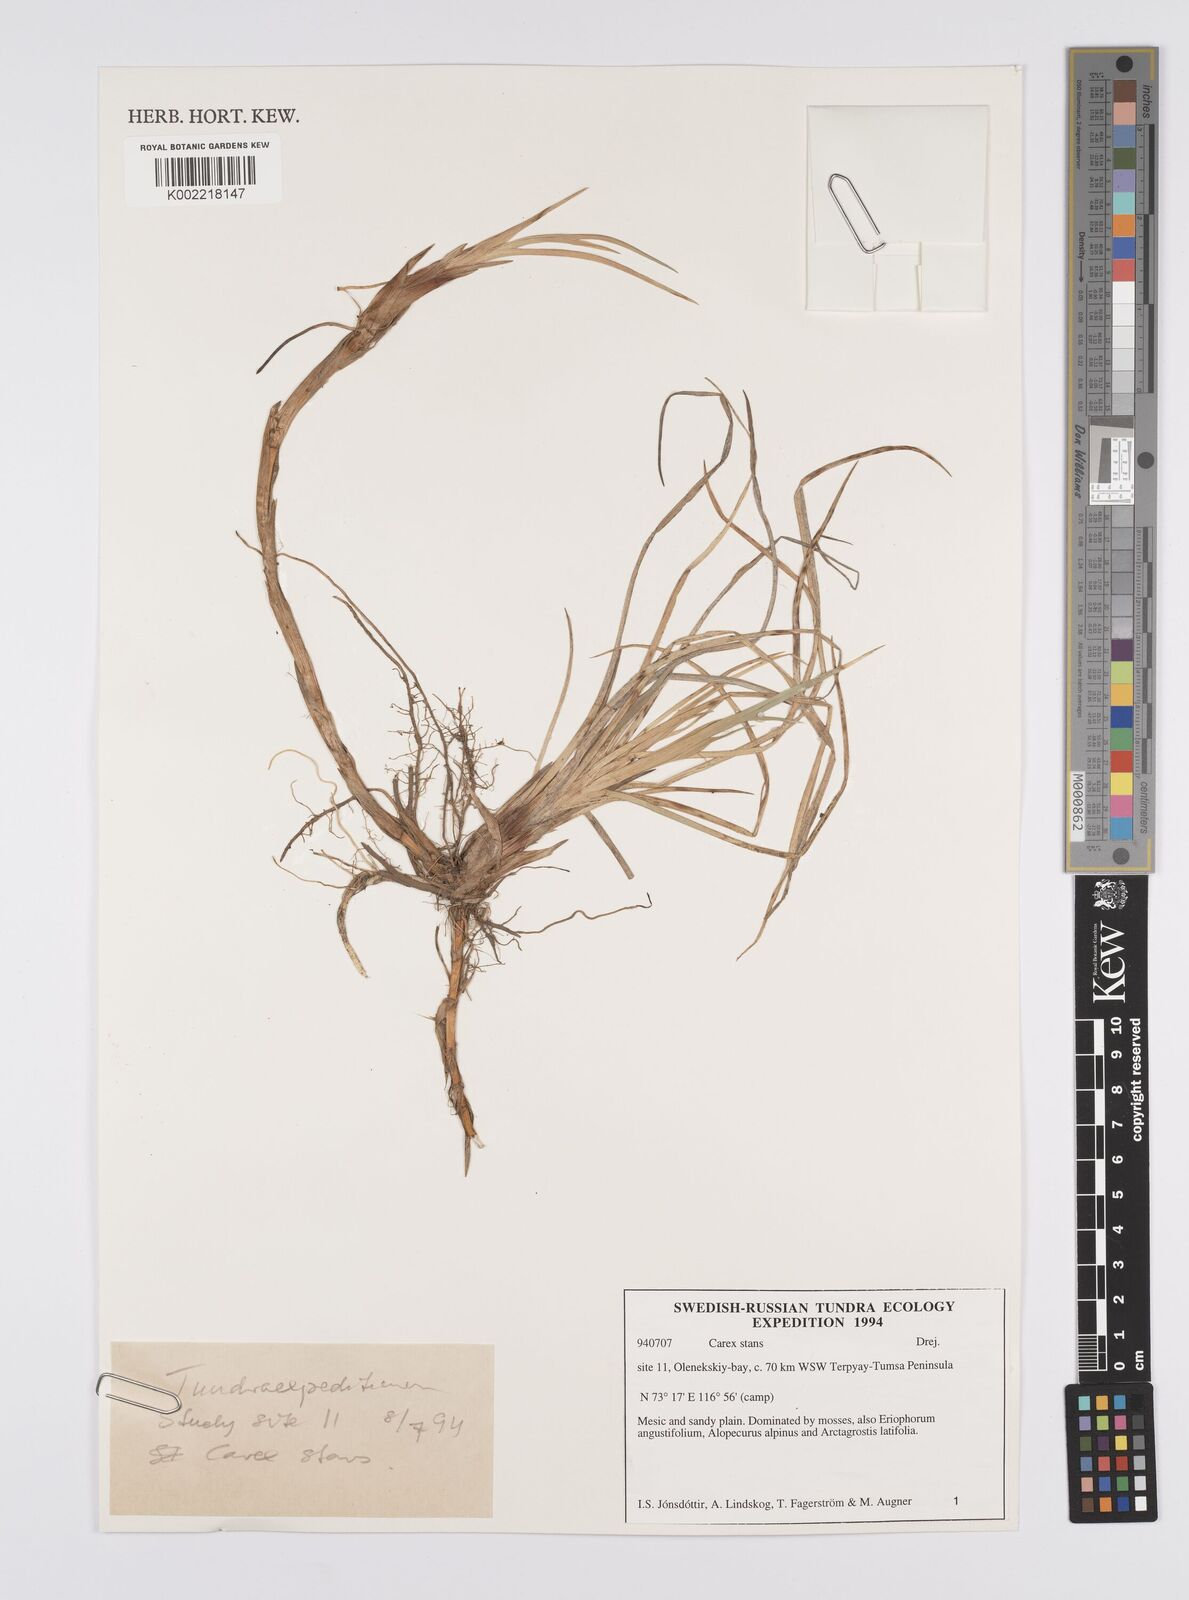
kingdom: Plantae
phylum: Tracheophyta
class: Liliopsida
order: Poales
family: Cyperaceae
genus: Carex
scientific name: Carex aquatilis
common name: Water sedge
